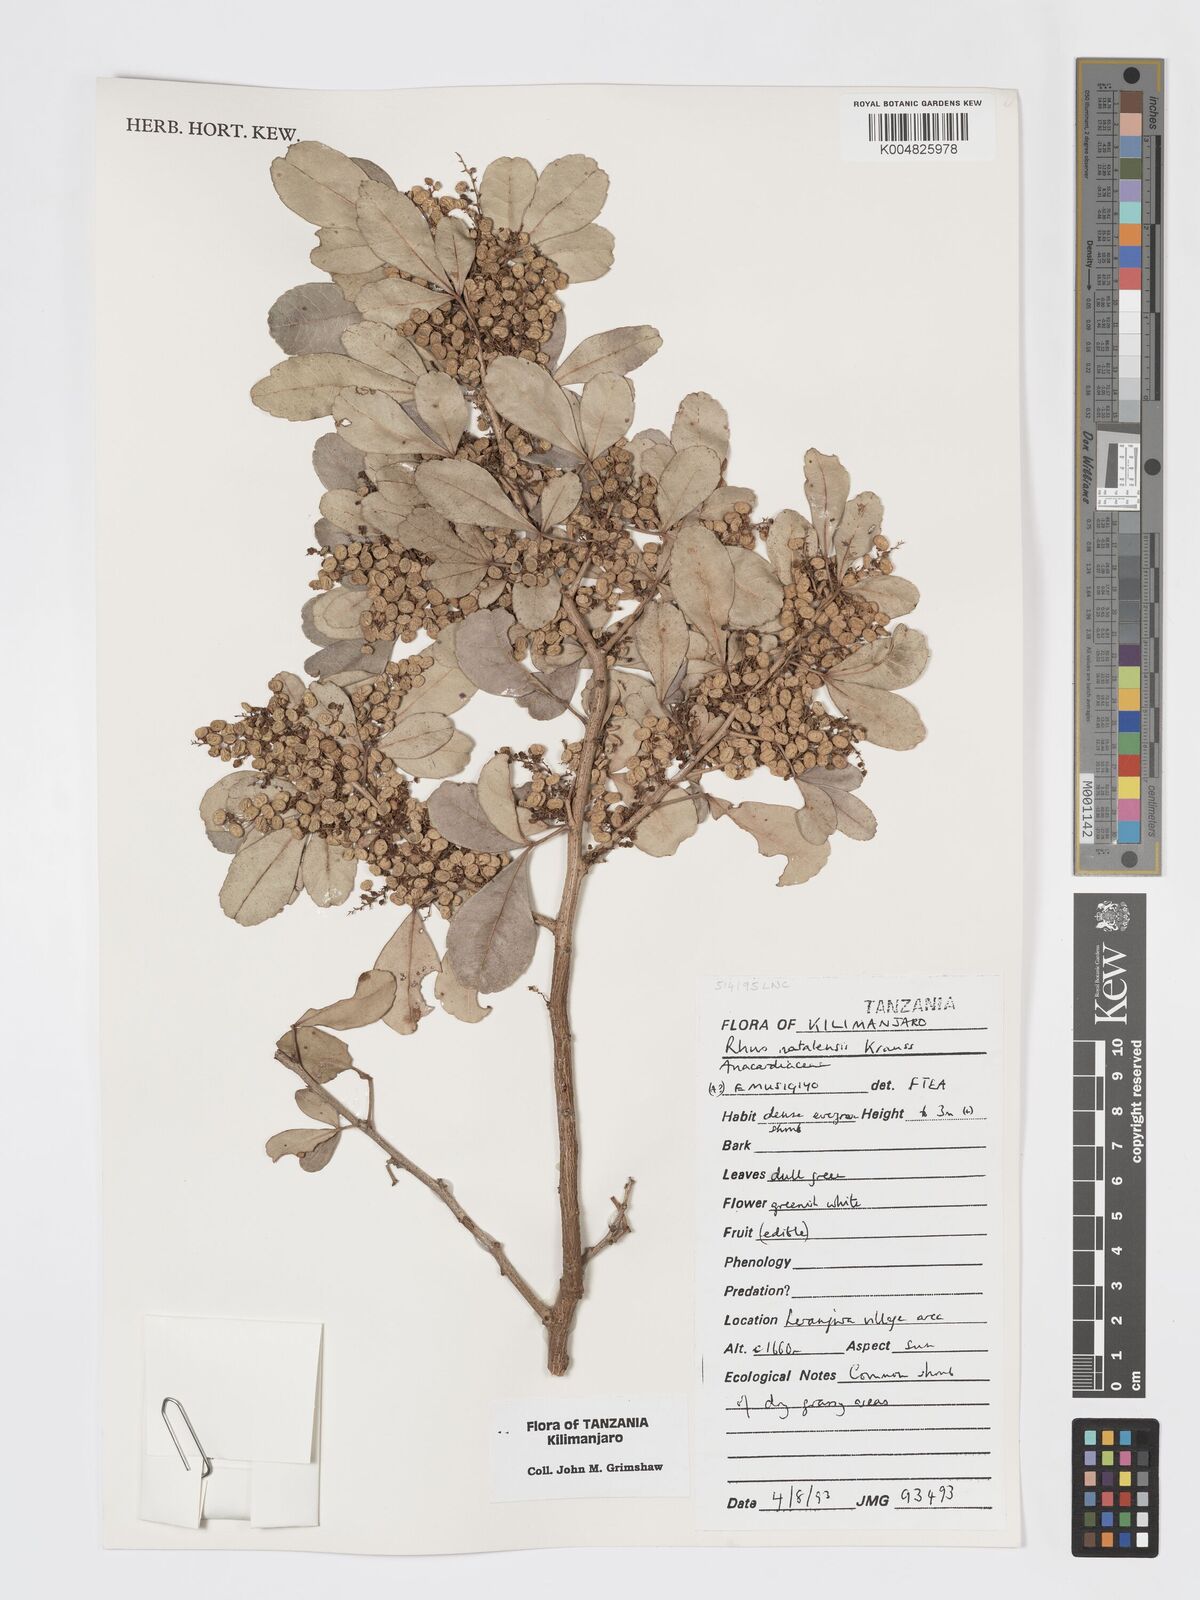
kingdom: Plantae
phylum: Tracheophyta
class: Magnoliopsida
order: Sapindales
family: Anacardiaceae
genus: Searsia
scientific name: Searsia natalensis
